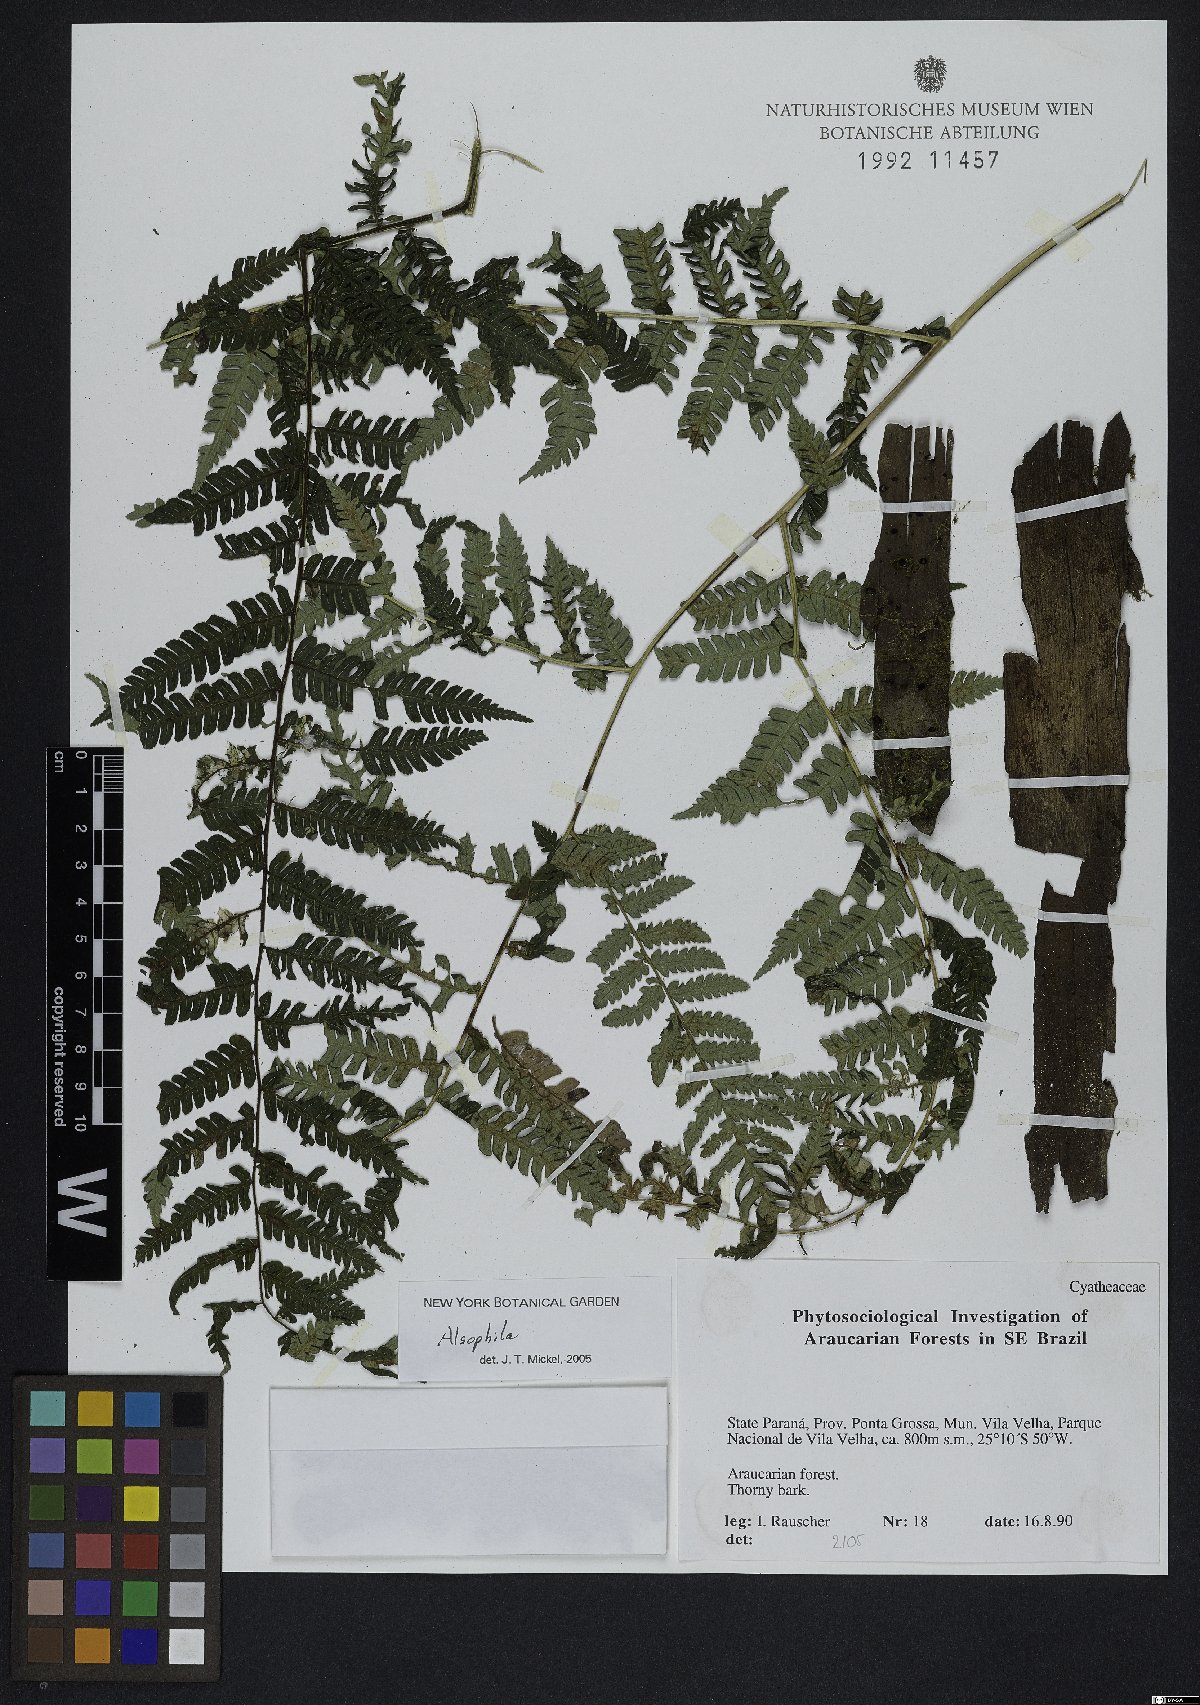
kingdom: Plantae
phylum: Tracheophyta
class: Polypodiopsida
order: Cyatheales
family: Cyatheaceae
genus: Alsophila
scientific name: Alsophila
